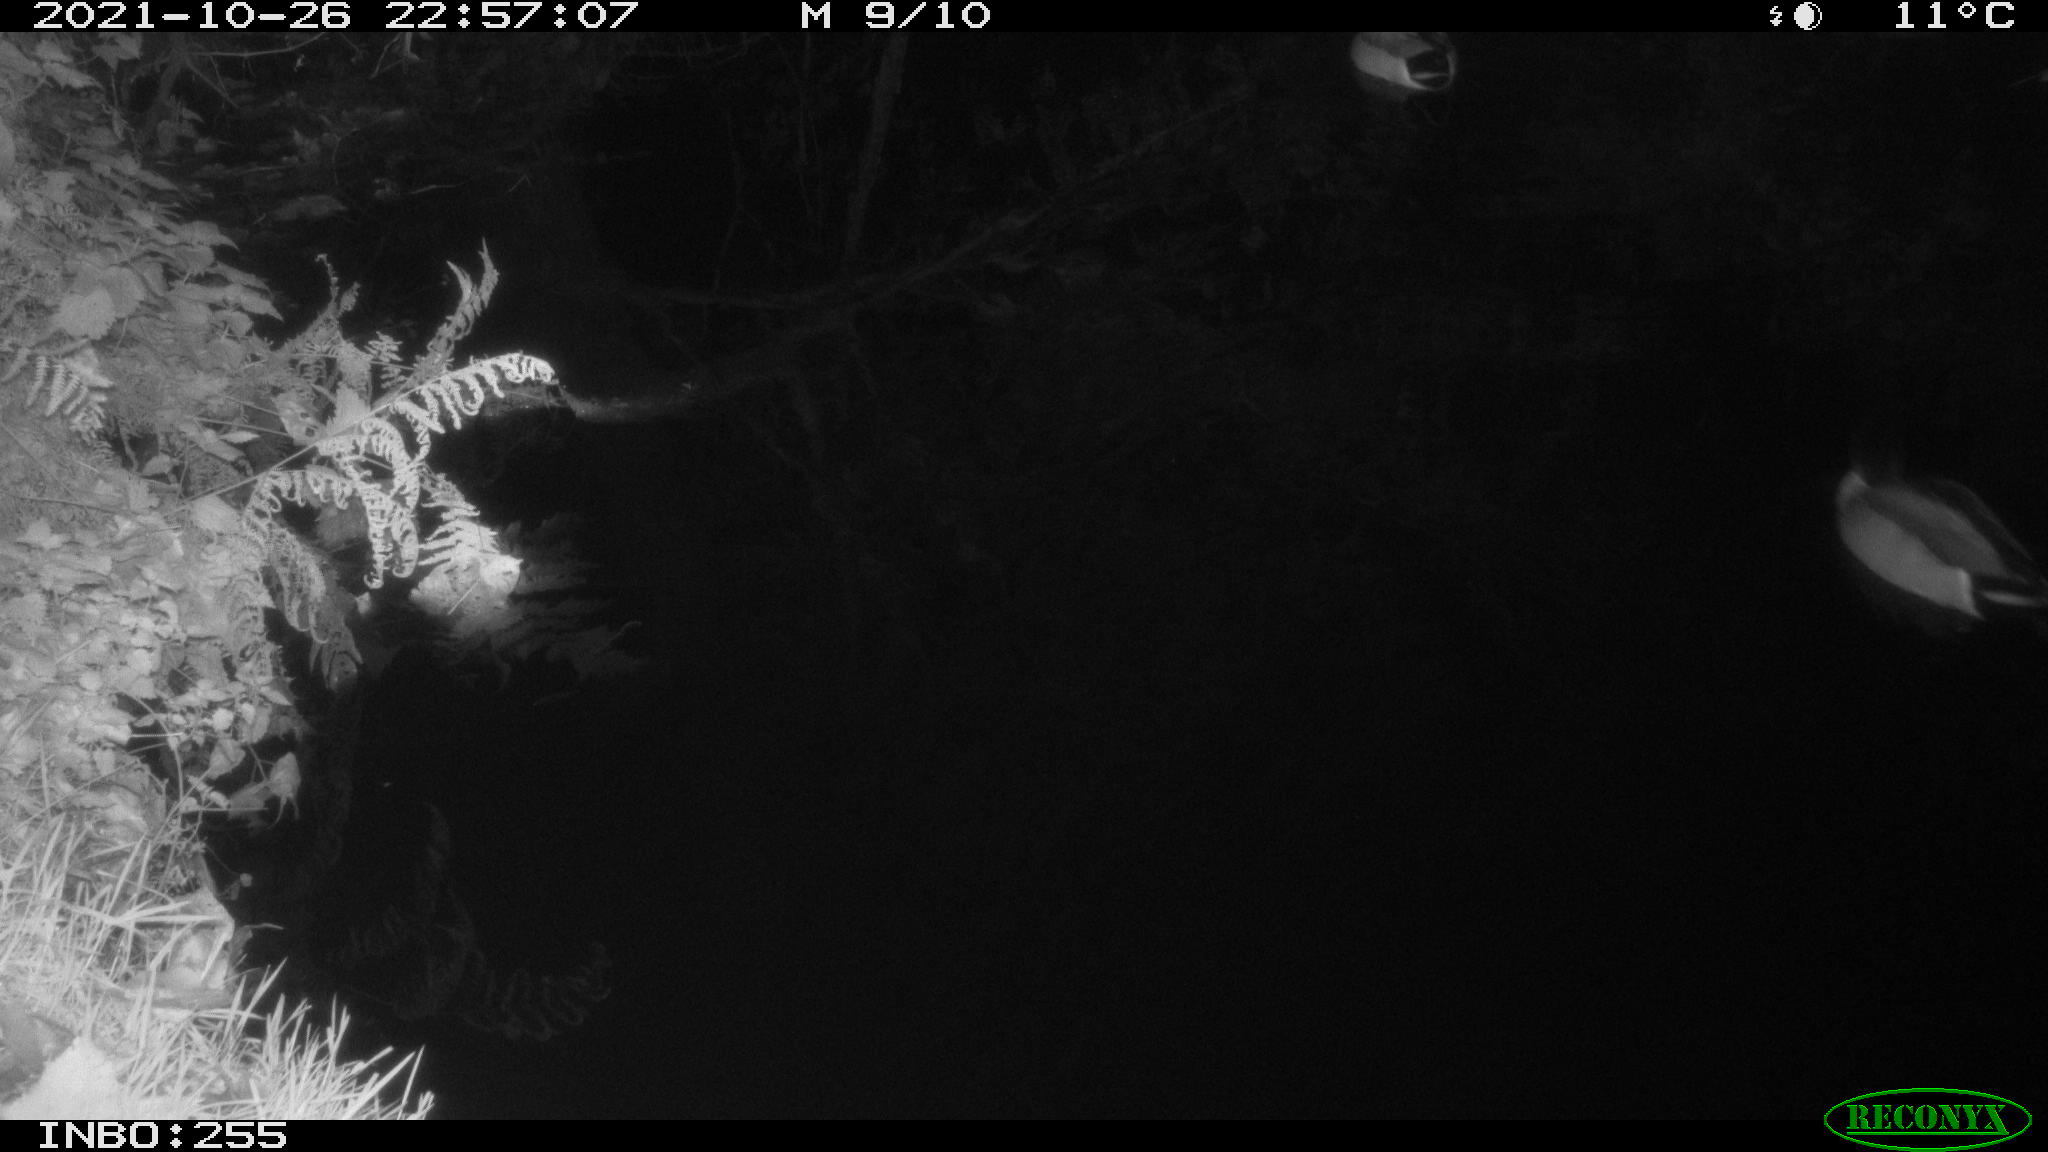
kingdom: Animalia
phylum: Chordata
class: Aves
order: Anseriformes
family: Anatidae
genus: Anas
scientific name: Anas platyrhynchos
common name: Mallard
